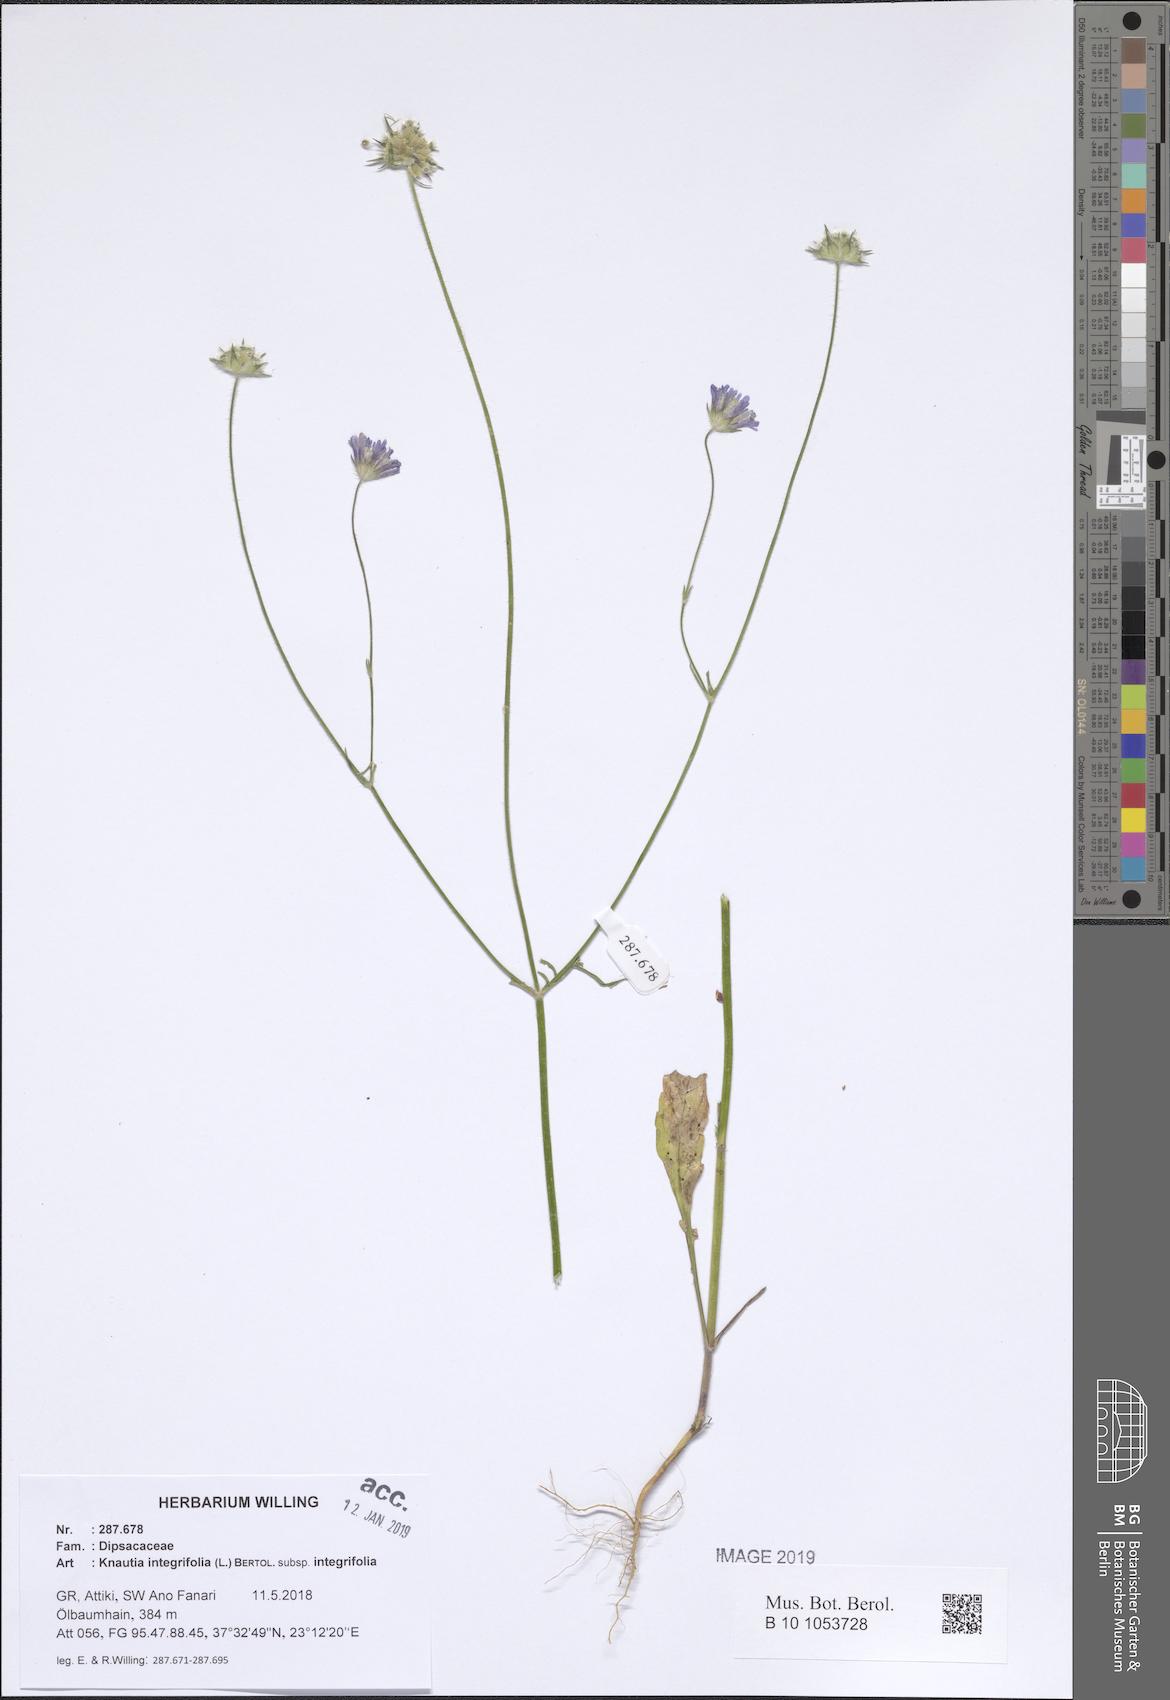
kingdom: Plantae
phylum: Tracheophyta
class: Magnoliopsida
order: Dipsacales
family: Caprifoliaceae
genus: Knautia
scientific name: Knautia integrifolia
